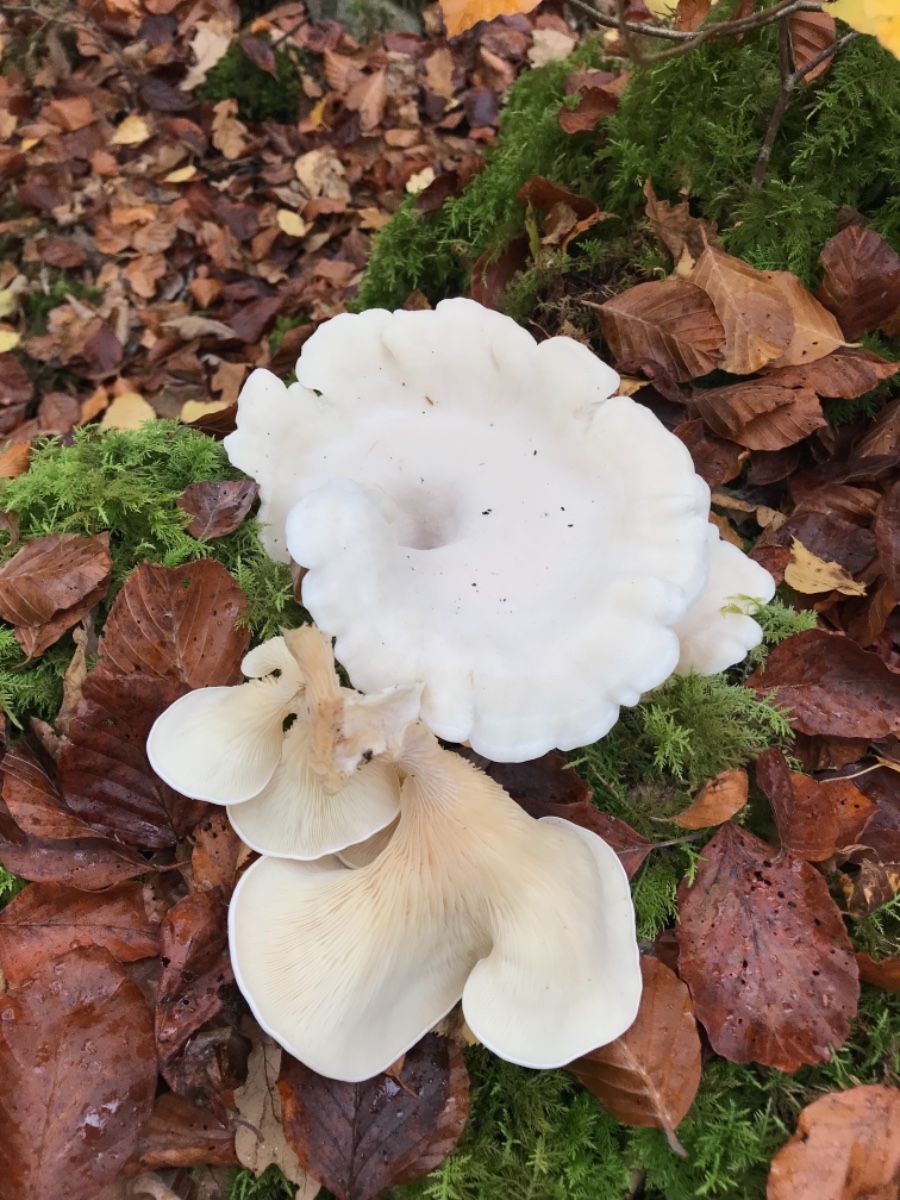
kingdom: Fungi
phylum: Basidiomycota
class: Agaricomycetes
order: Agaricales
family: Marasmiaceae
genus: Pleurocybella
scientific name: Pleurocybella porrigens
